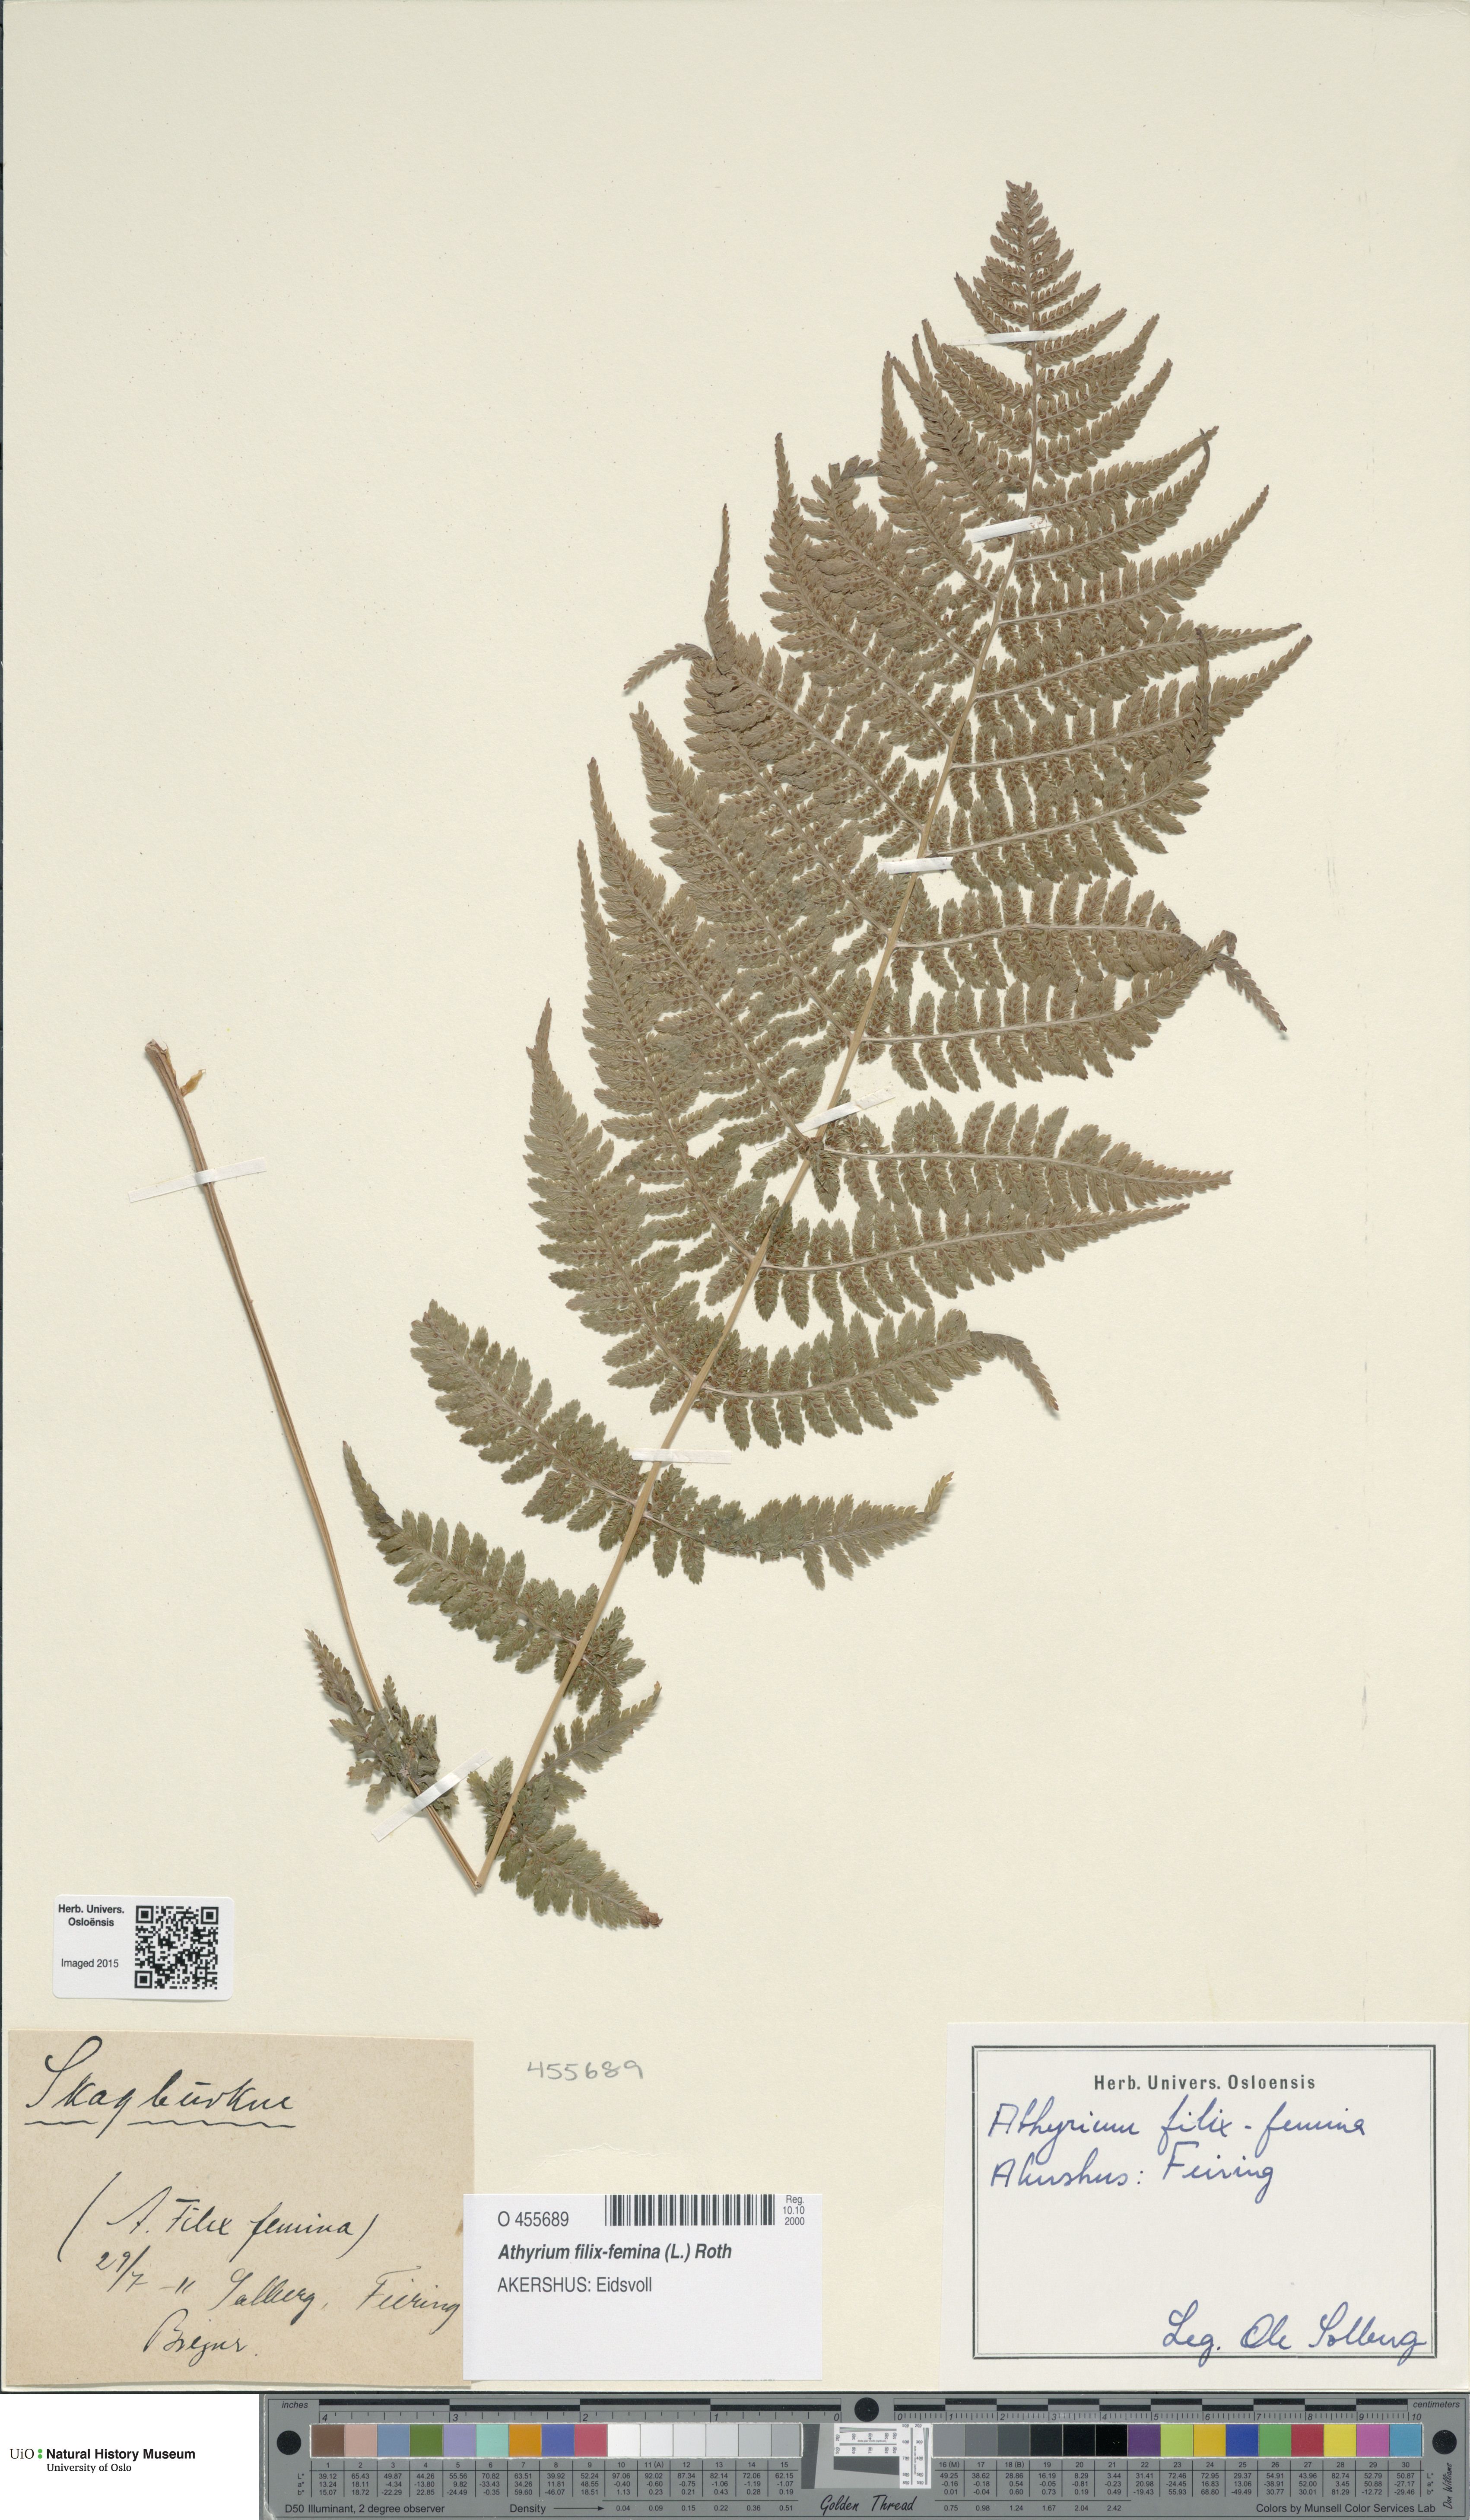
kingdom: Plantae
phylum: Tracheophyta
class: Polypodiopsida
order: Polypodiales
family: Athyriaceae
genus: Athyrium
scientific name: Athyrium filix-femina
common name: Lady fern
